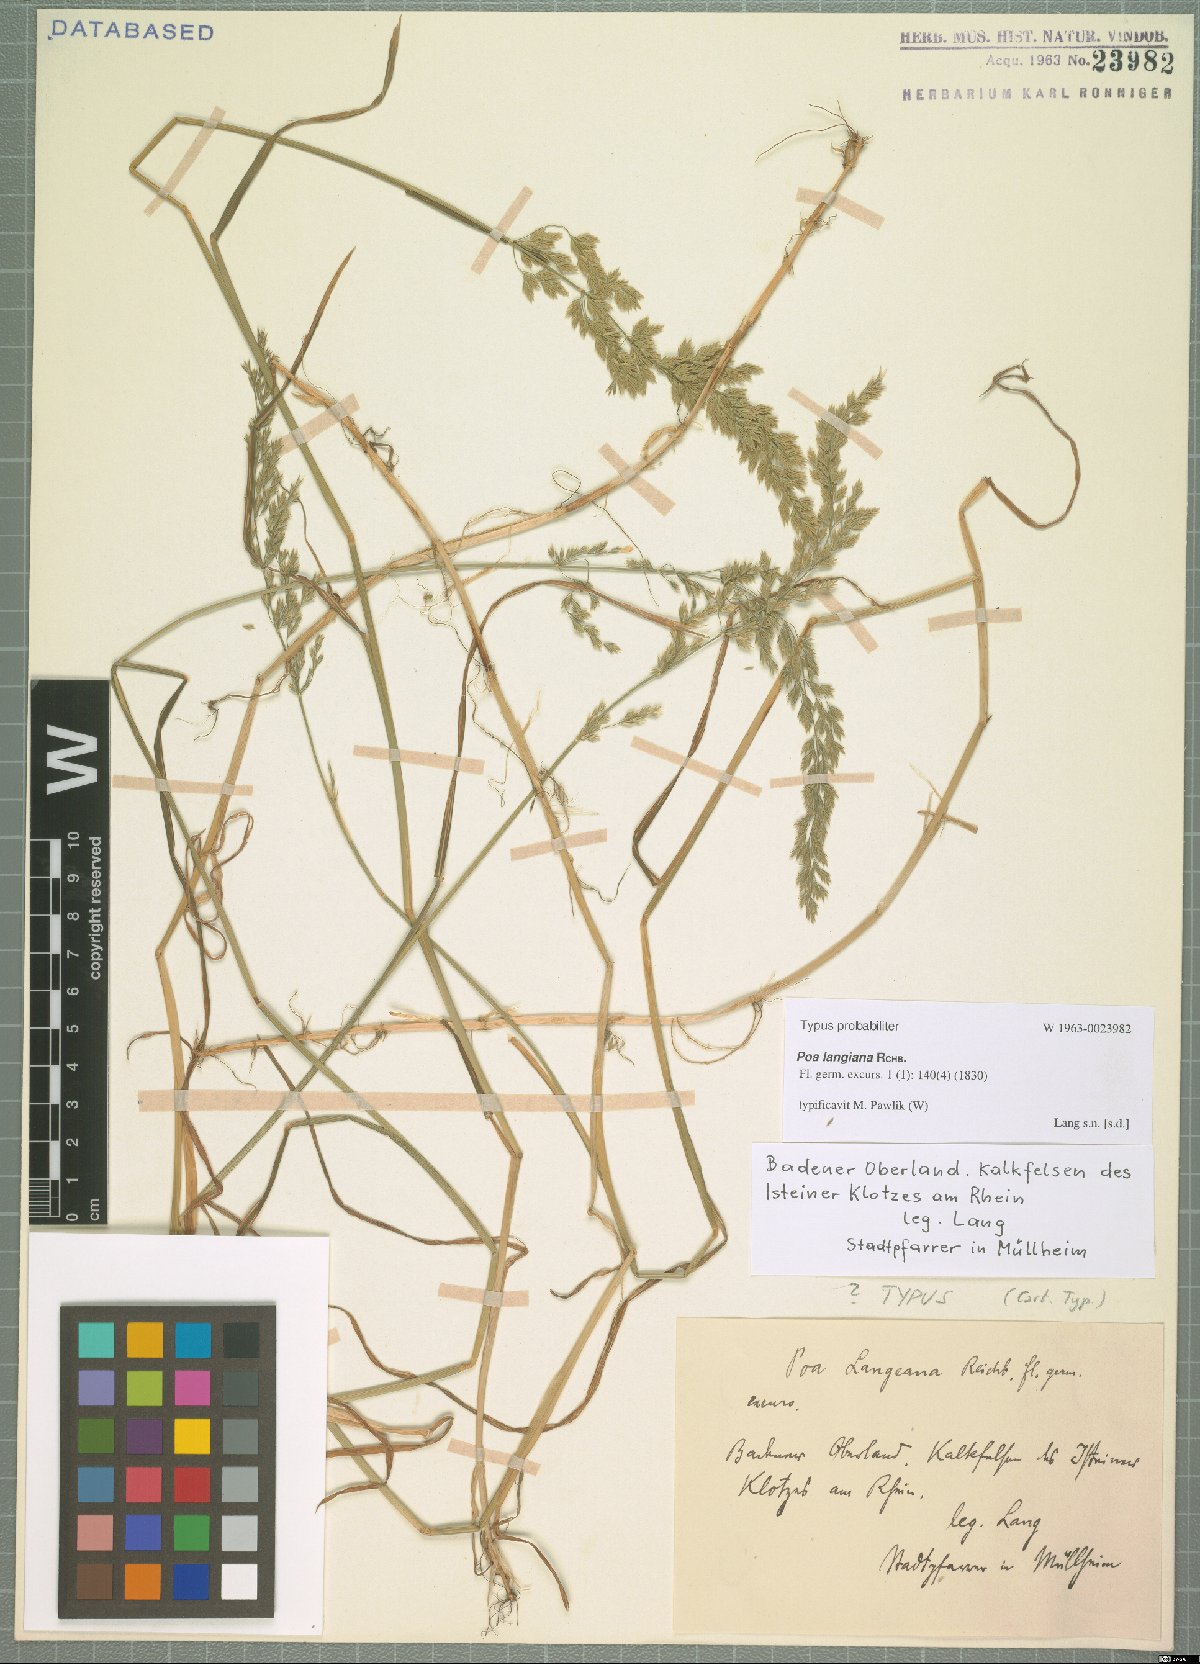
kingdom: Plantae
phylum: Tracheophyta
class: Liliopsida
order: Poales
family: Poaceae
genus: Poa
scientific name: Poa compressa
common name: Canada bluegrass
